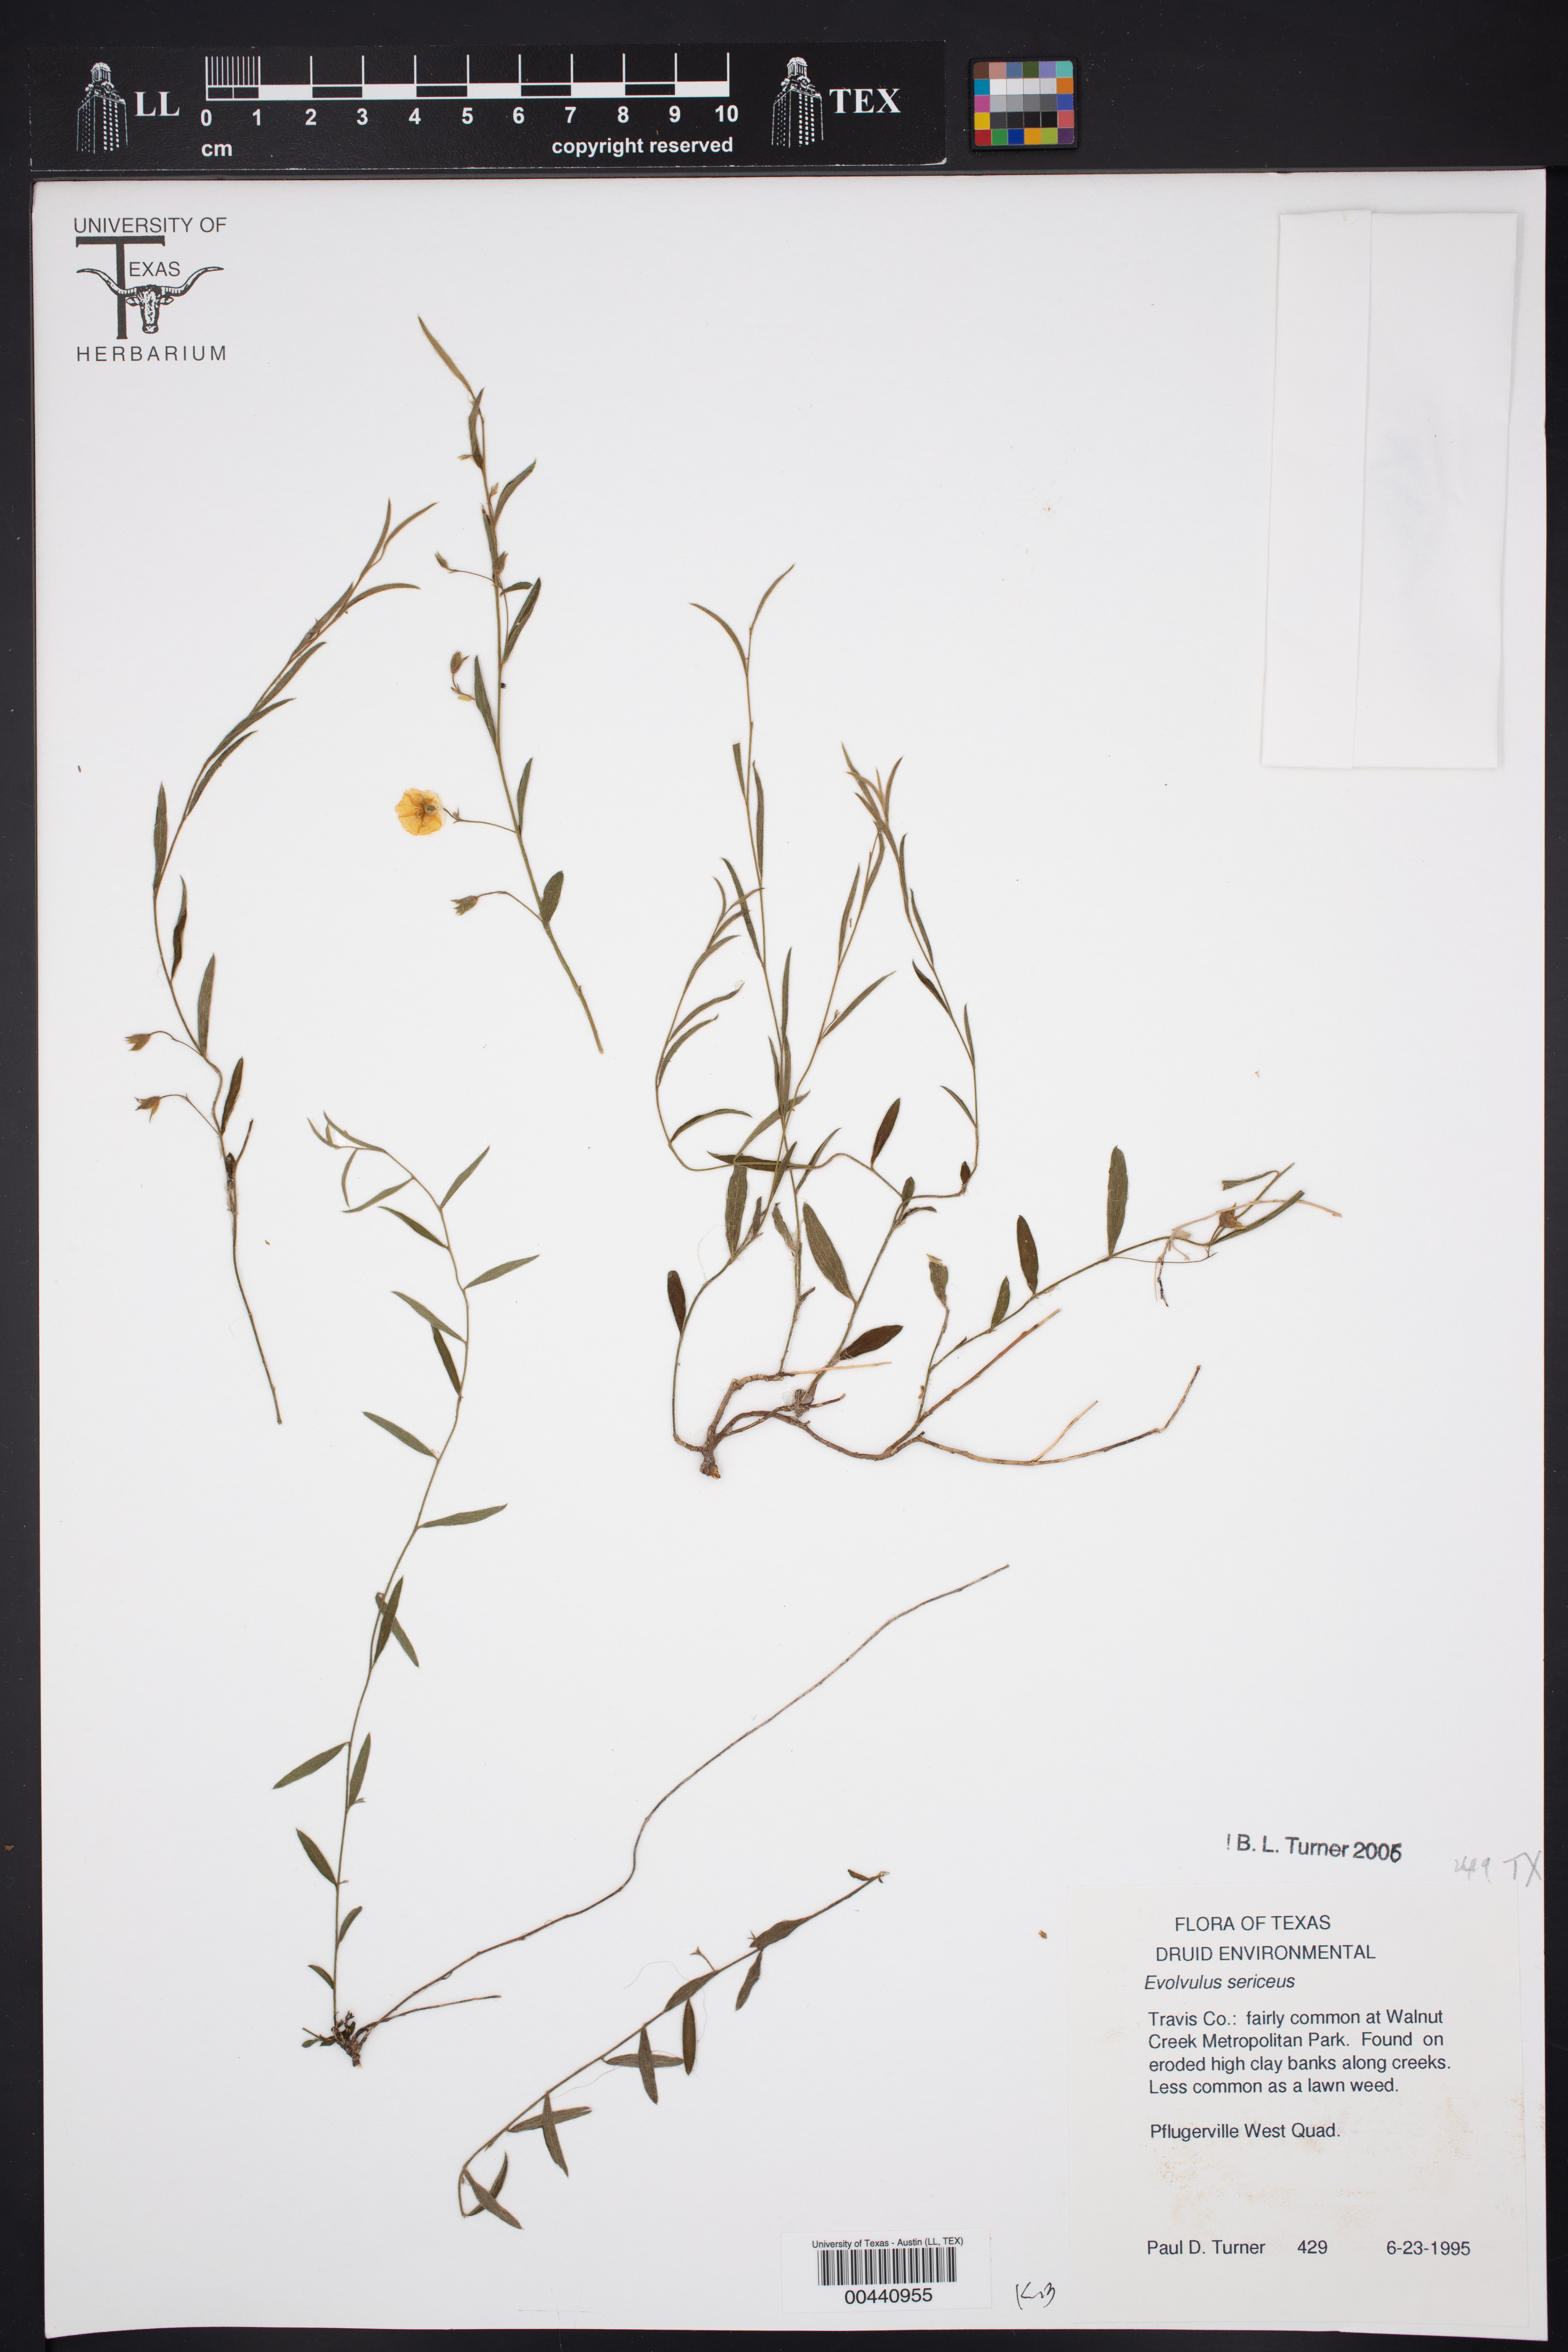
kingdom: Plantae
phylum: Tracheophyta
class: Magnoliopsida
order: Solanales
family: Convolvulaceae
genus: Evolvulus
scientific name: Evolvulus sericeus
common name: Blue dots
